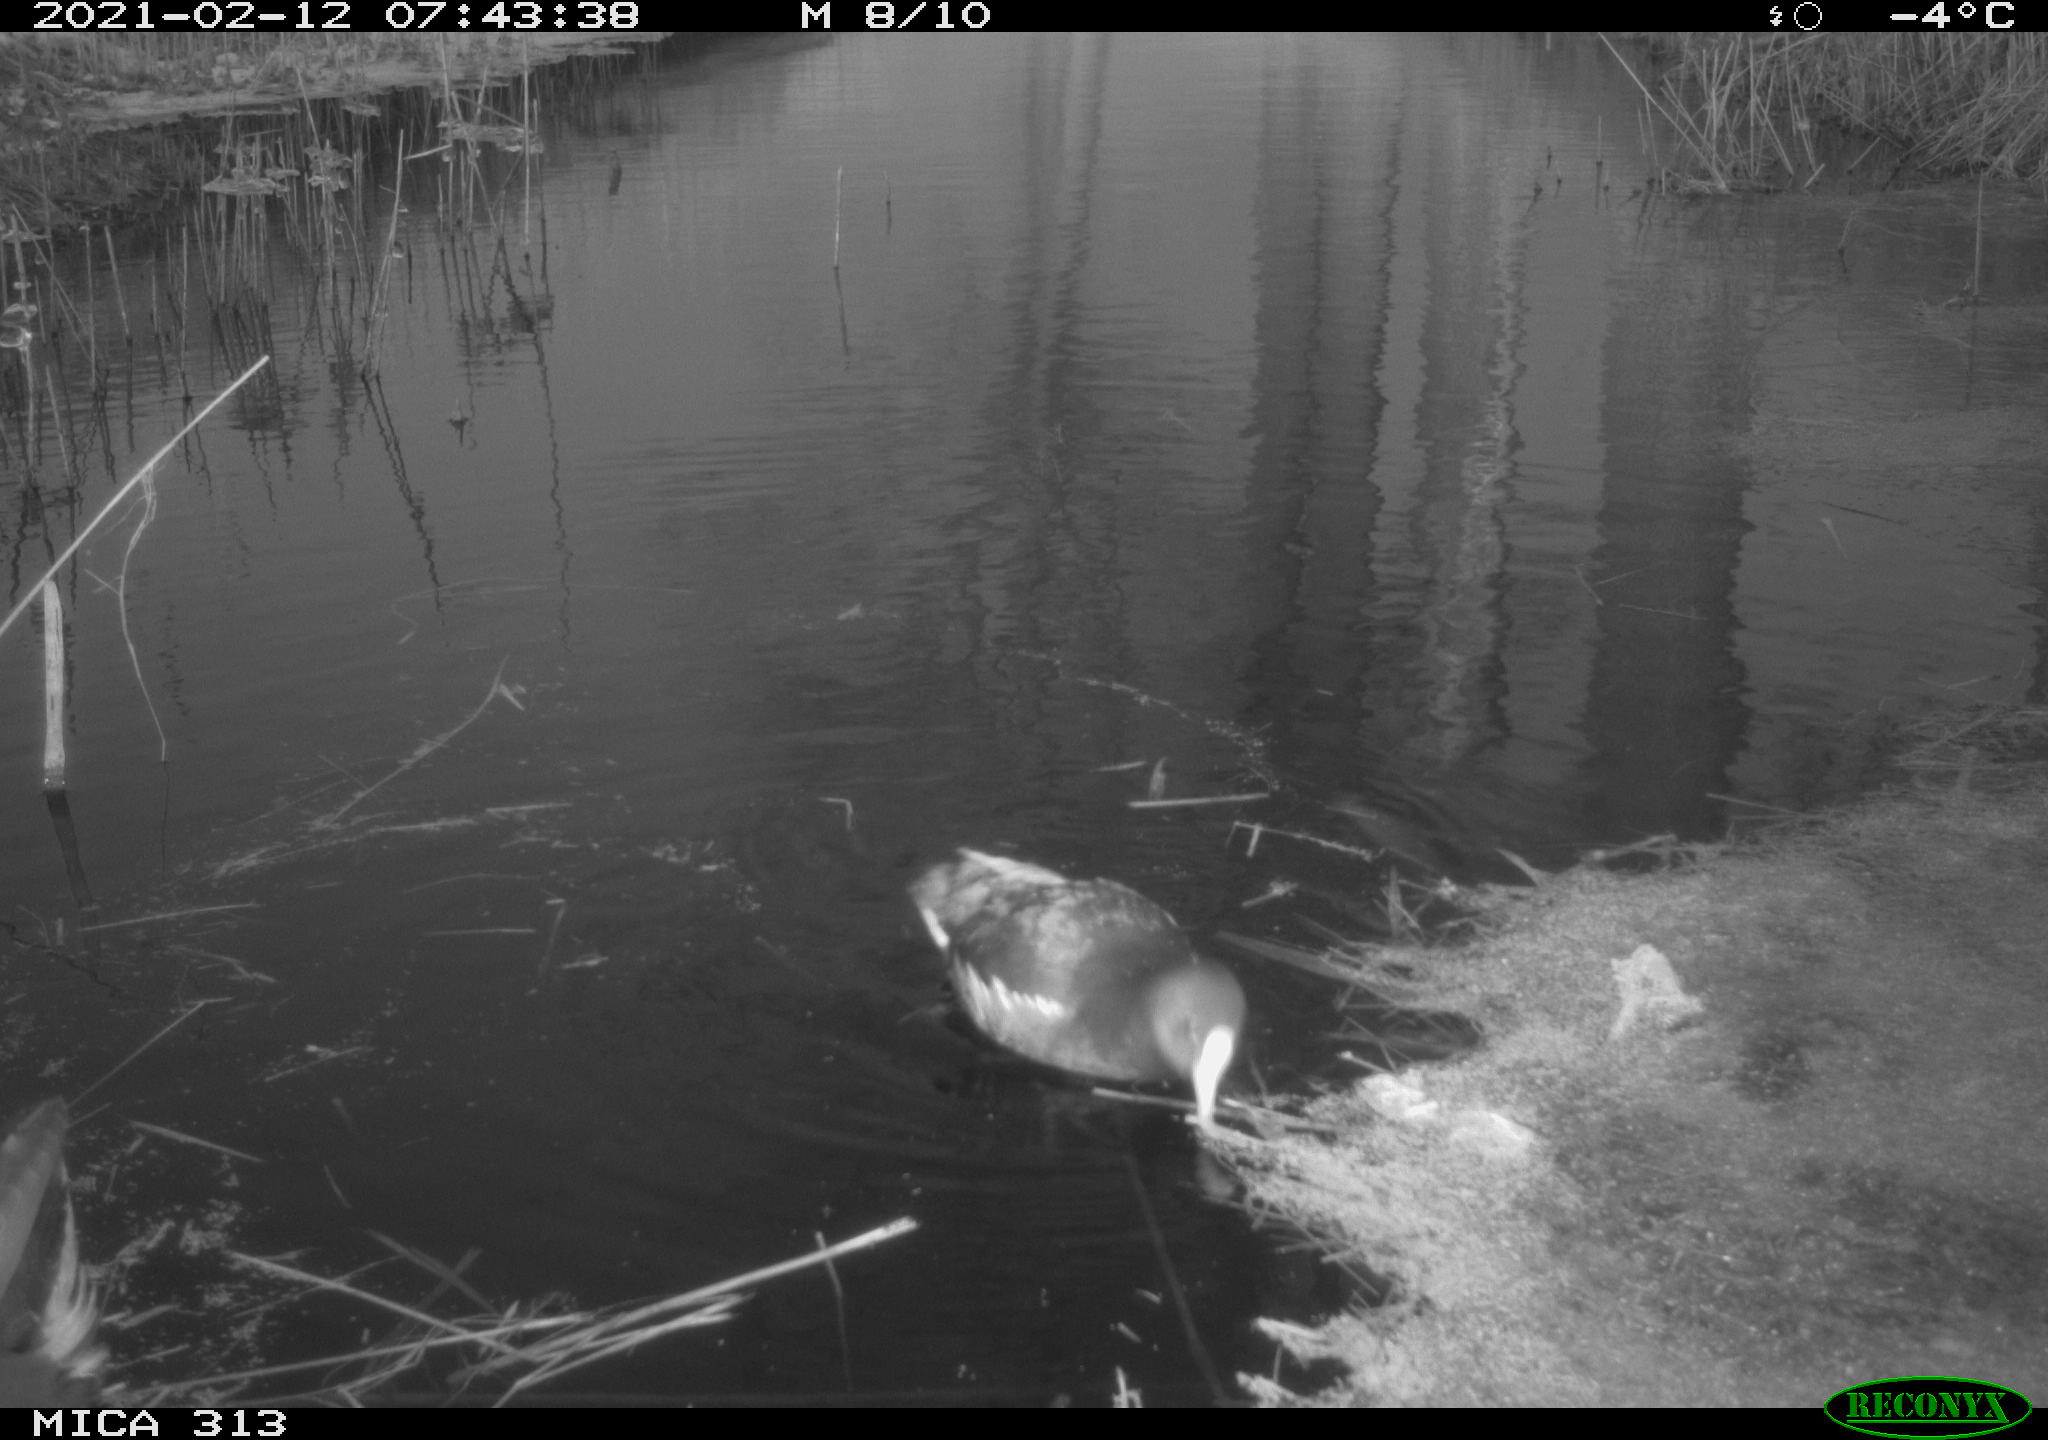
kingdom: Animalia
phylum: Chordata
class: Aves
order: Gruiformes
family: Rallidae
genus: Gallinula
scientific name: Gallinula chloropus
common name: Common moorhen
